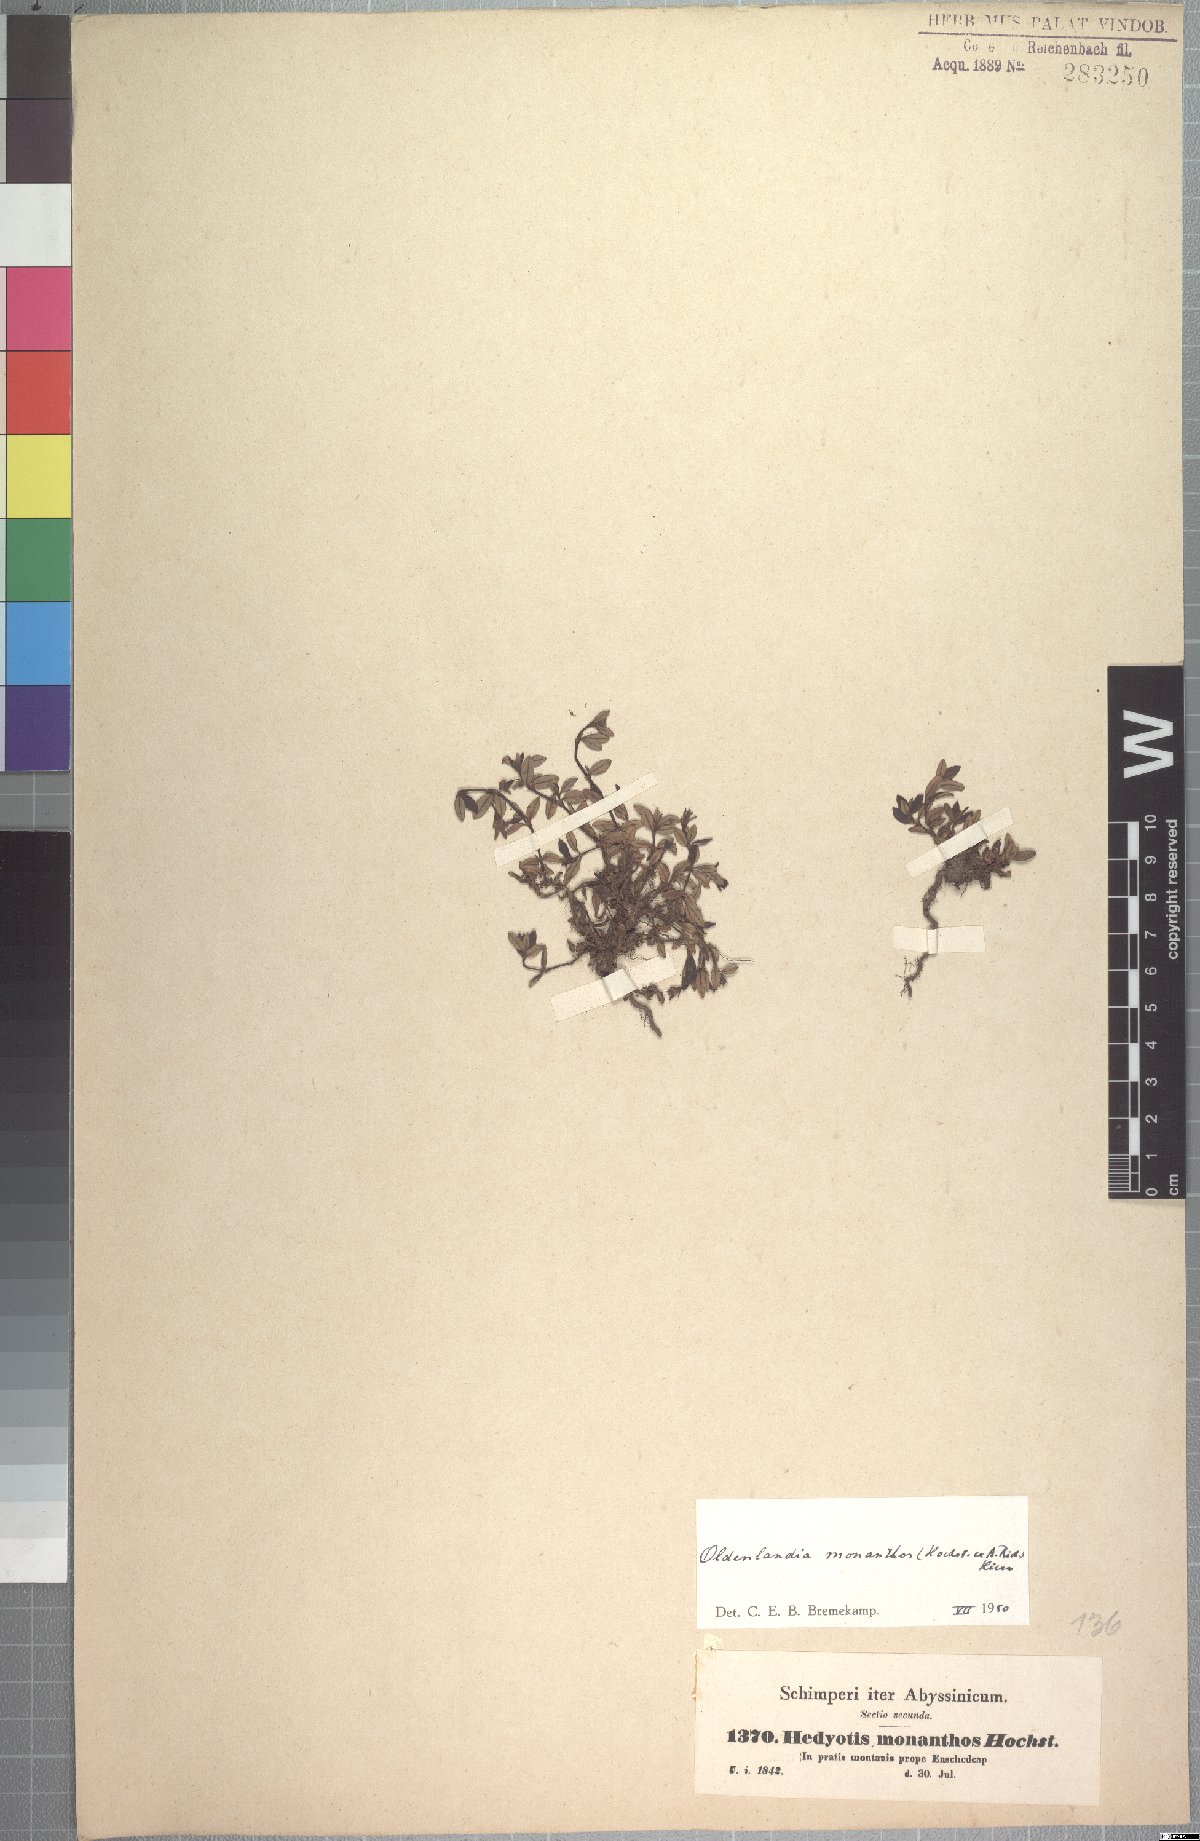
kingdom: Plantae
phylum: Tracheophyta
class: Magnoliopsida
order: Gentianales
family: Rubiaceae
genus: Oldenlandia
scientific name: Oldenlandia monanthos
